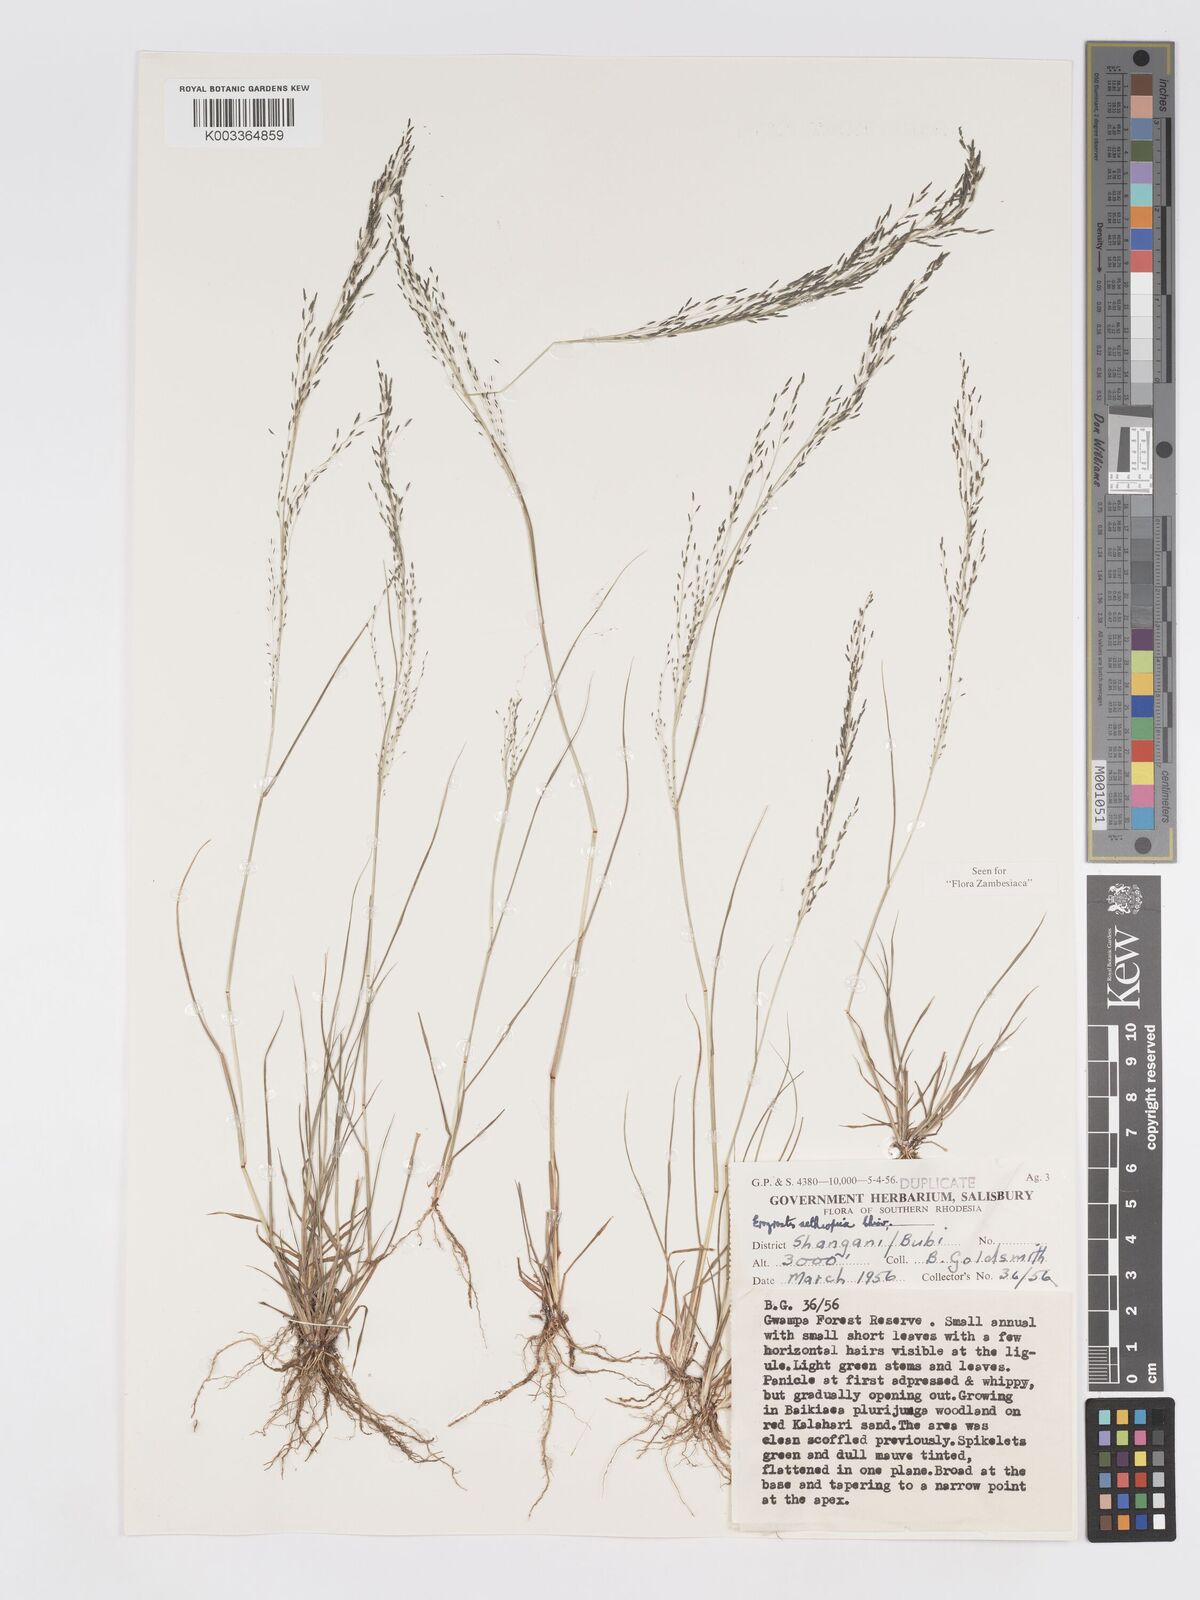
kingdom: Plantae
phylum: Tracheophyta
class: Liliopsida
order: Poales
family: Poaceae
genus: Eragrostis
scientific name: Eragrostis aethiopica
